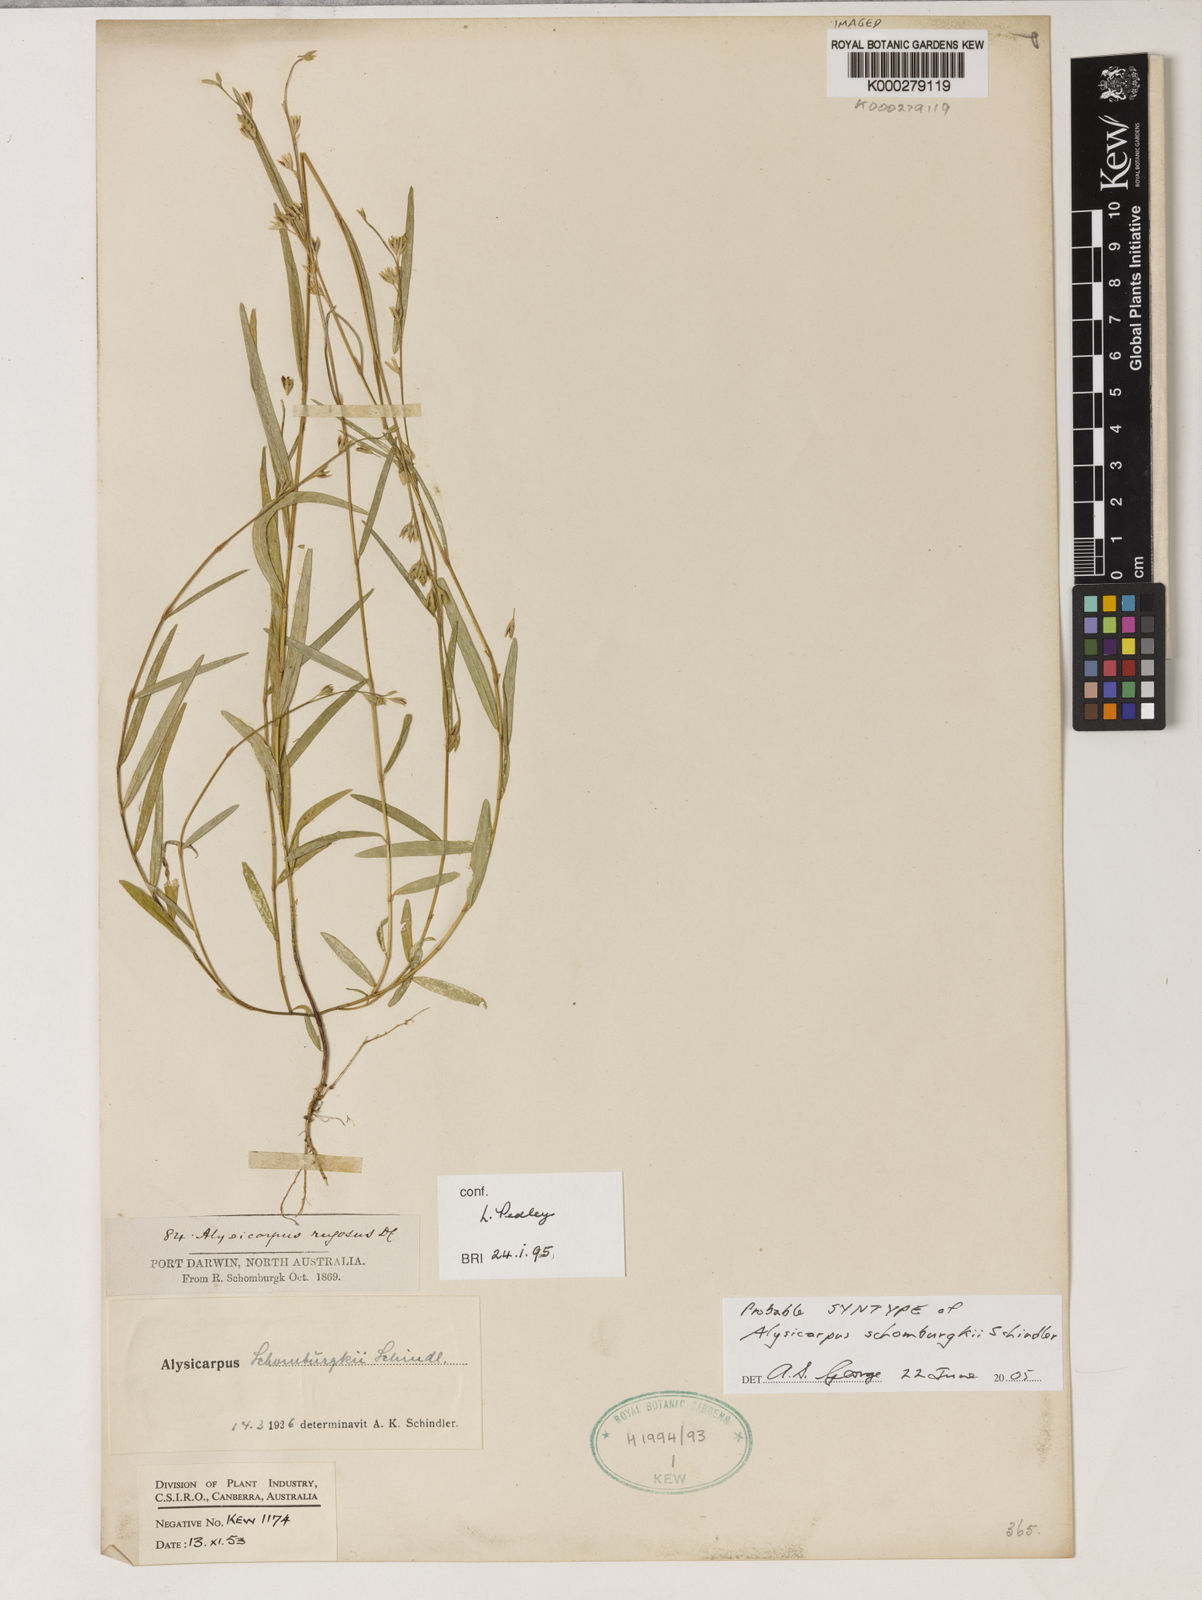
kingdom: Plantae
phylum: Tracheophyta
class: Magnoliopsida
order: Fabales
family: Fabaceae
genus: Alysicarpus
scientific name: Alysicarpus muelleri
